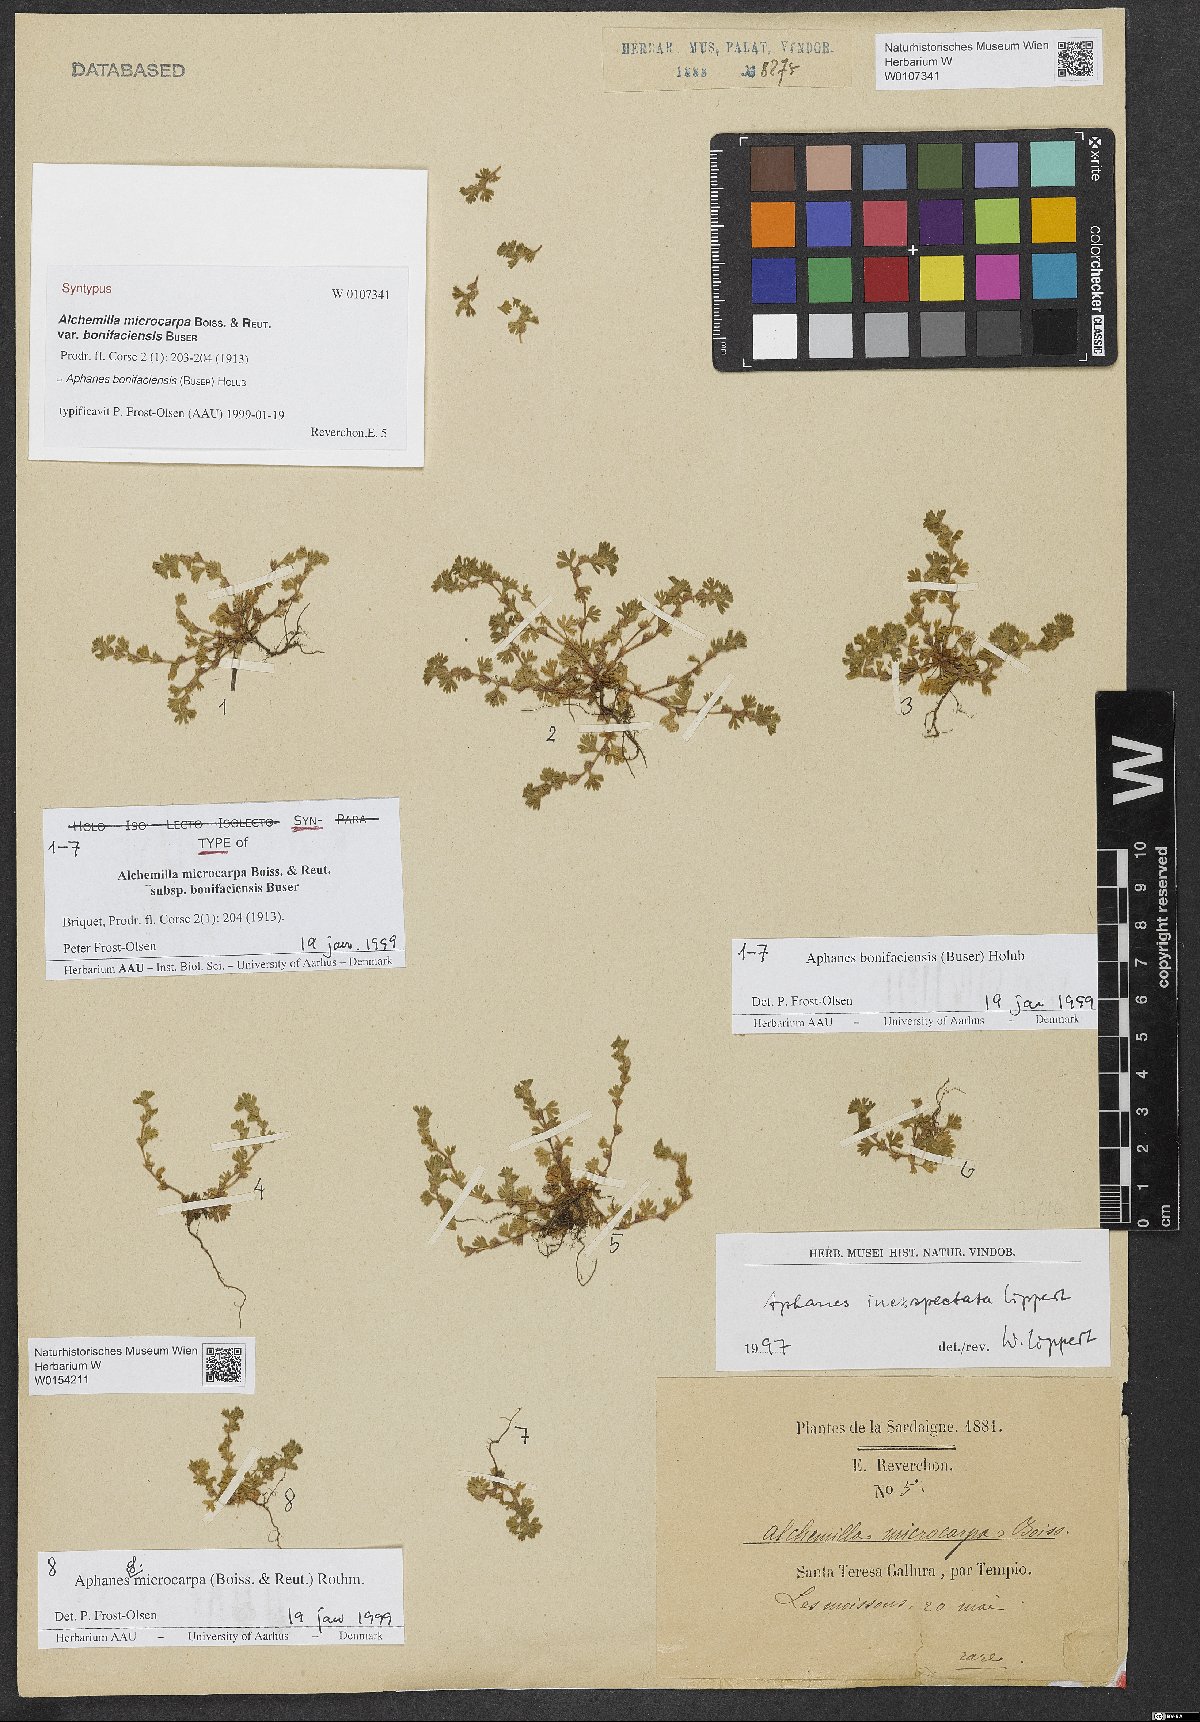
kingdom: Plantae
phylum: Tracheophyta
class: Magnoliopsida
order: Rosales
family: Rosaceae
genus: Aphanes
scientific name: Aphanes microcarpa
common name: Slender parsley piert
